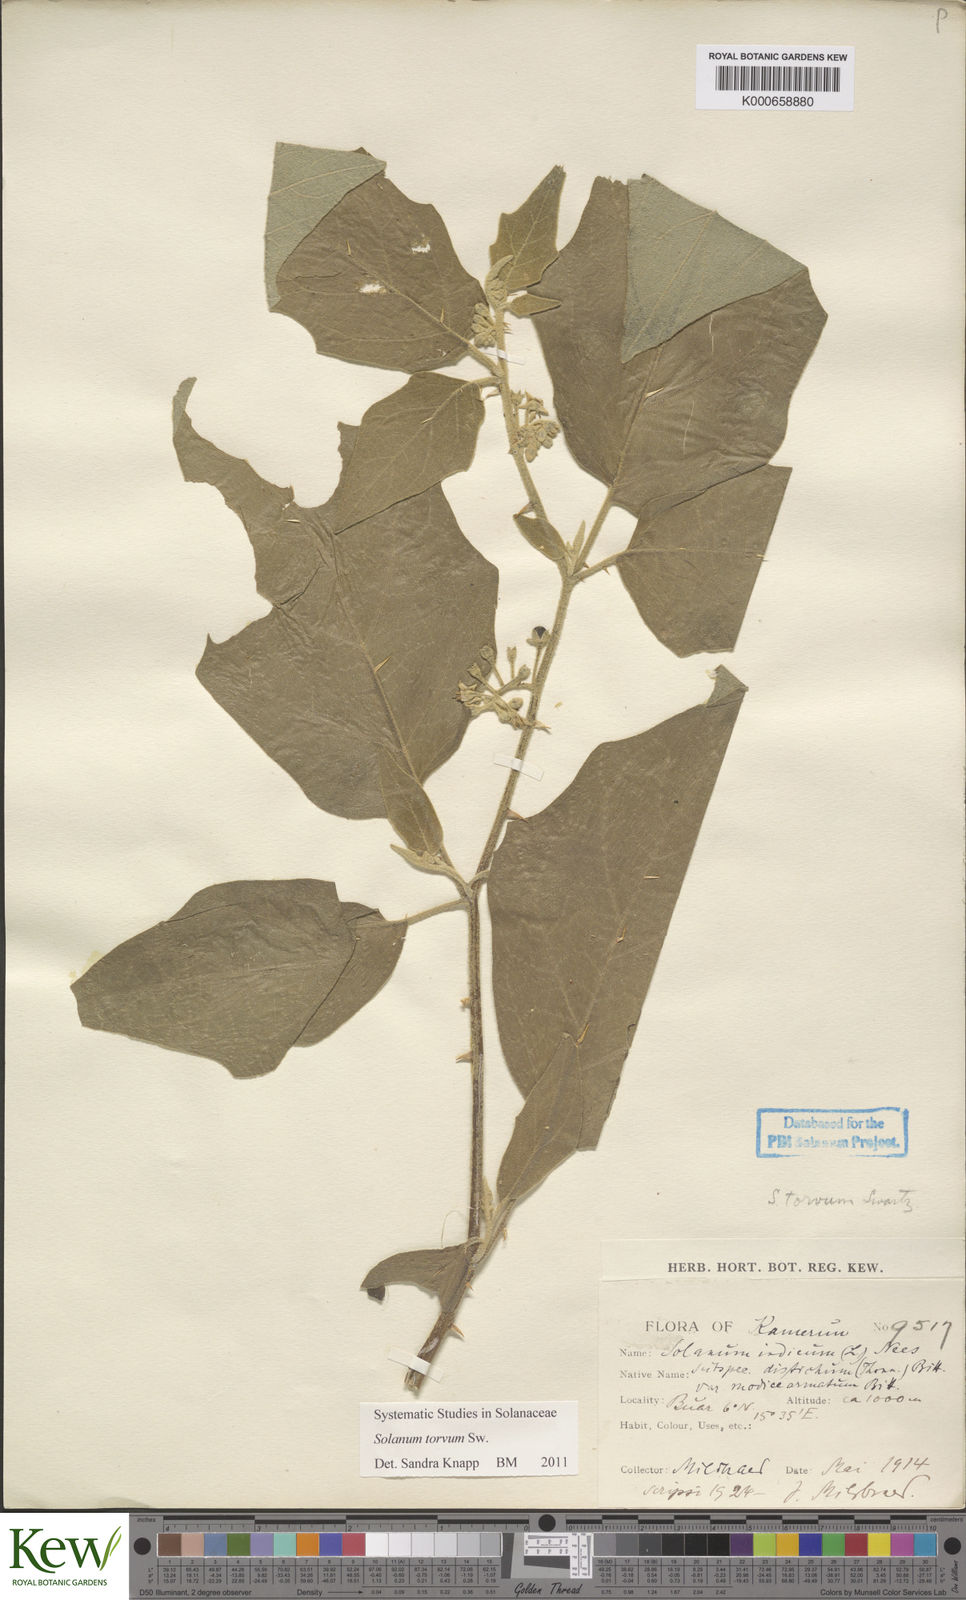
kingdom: Plantae
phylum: Tracheophyta
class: Magnoliopsida
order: Solanales
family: Solanaceae
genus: Solanum
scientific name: Solanum torvum
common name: Turkey berry
